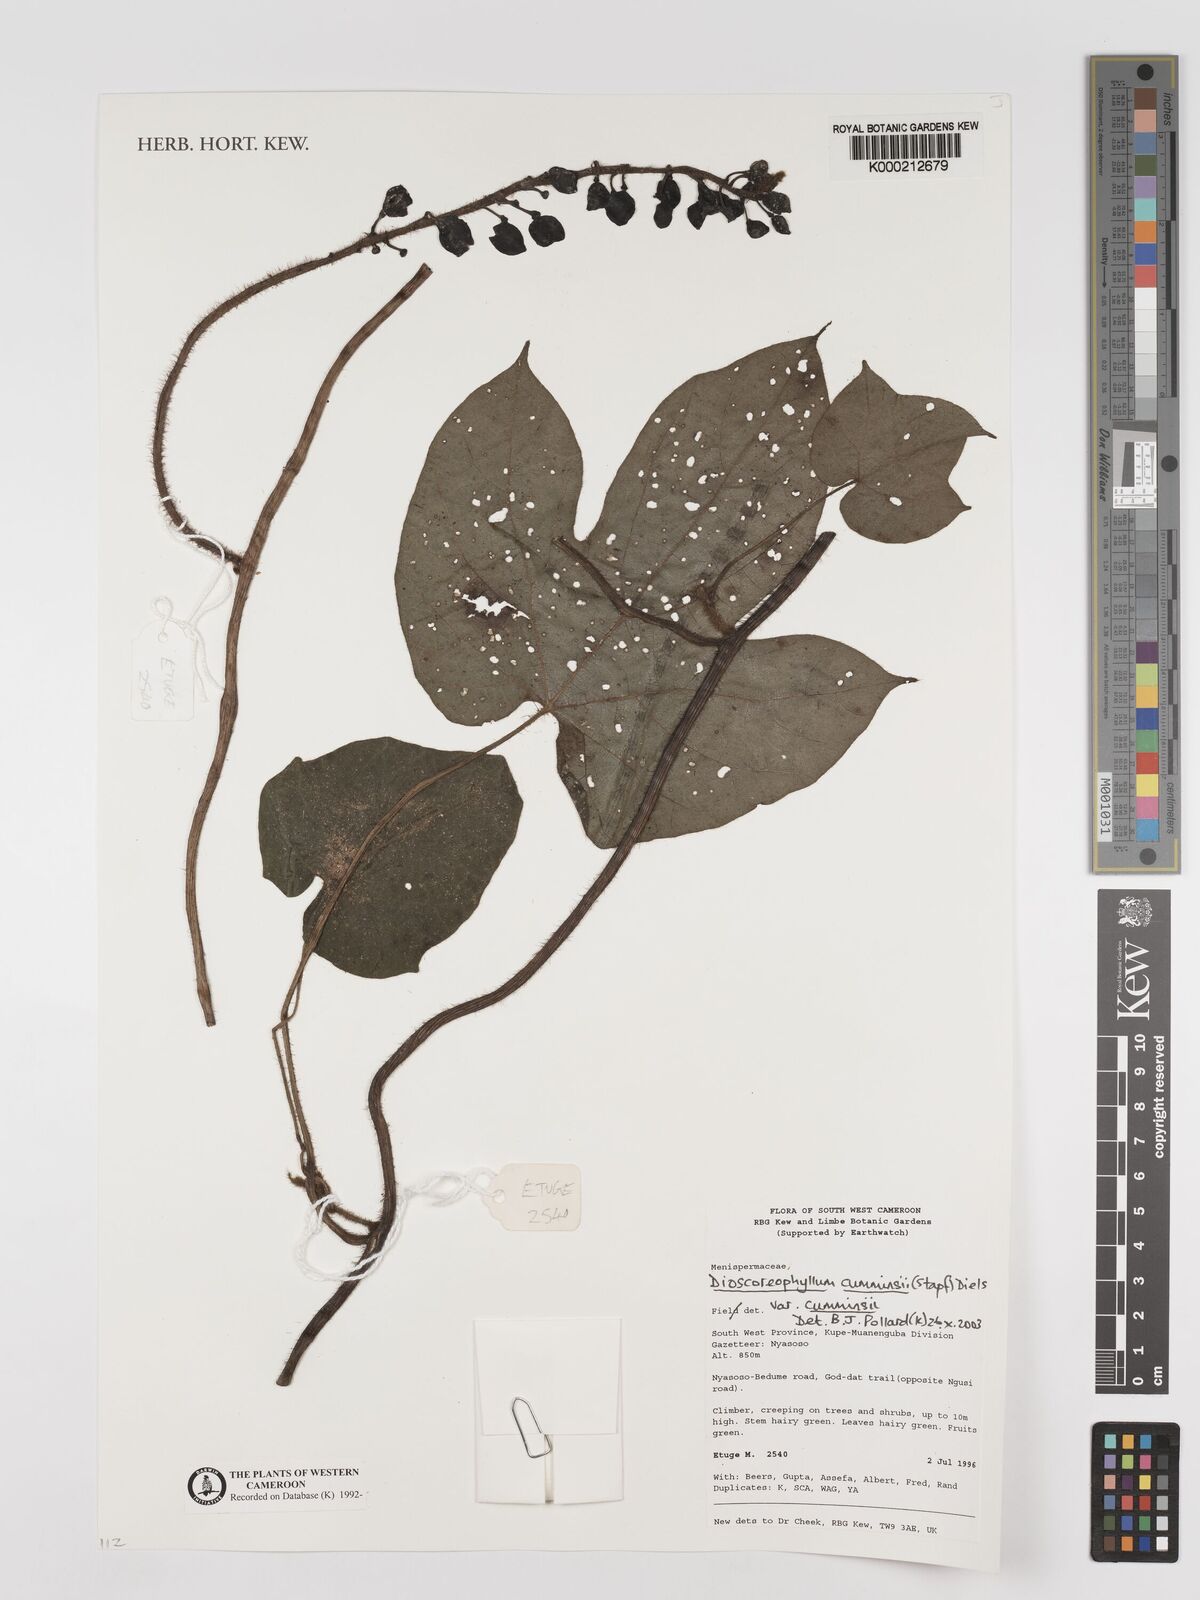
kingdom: Plantae
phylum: Tracheophyta
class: Magnoliopsida
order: Ranunculales
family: Menispermaceae
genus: Dioscoreophyllum
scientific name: Dioscoreophyllum volkensii
